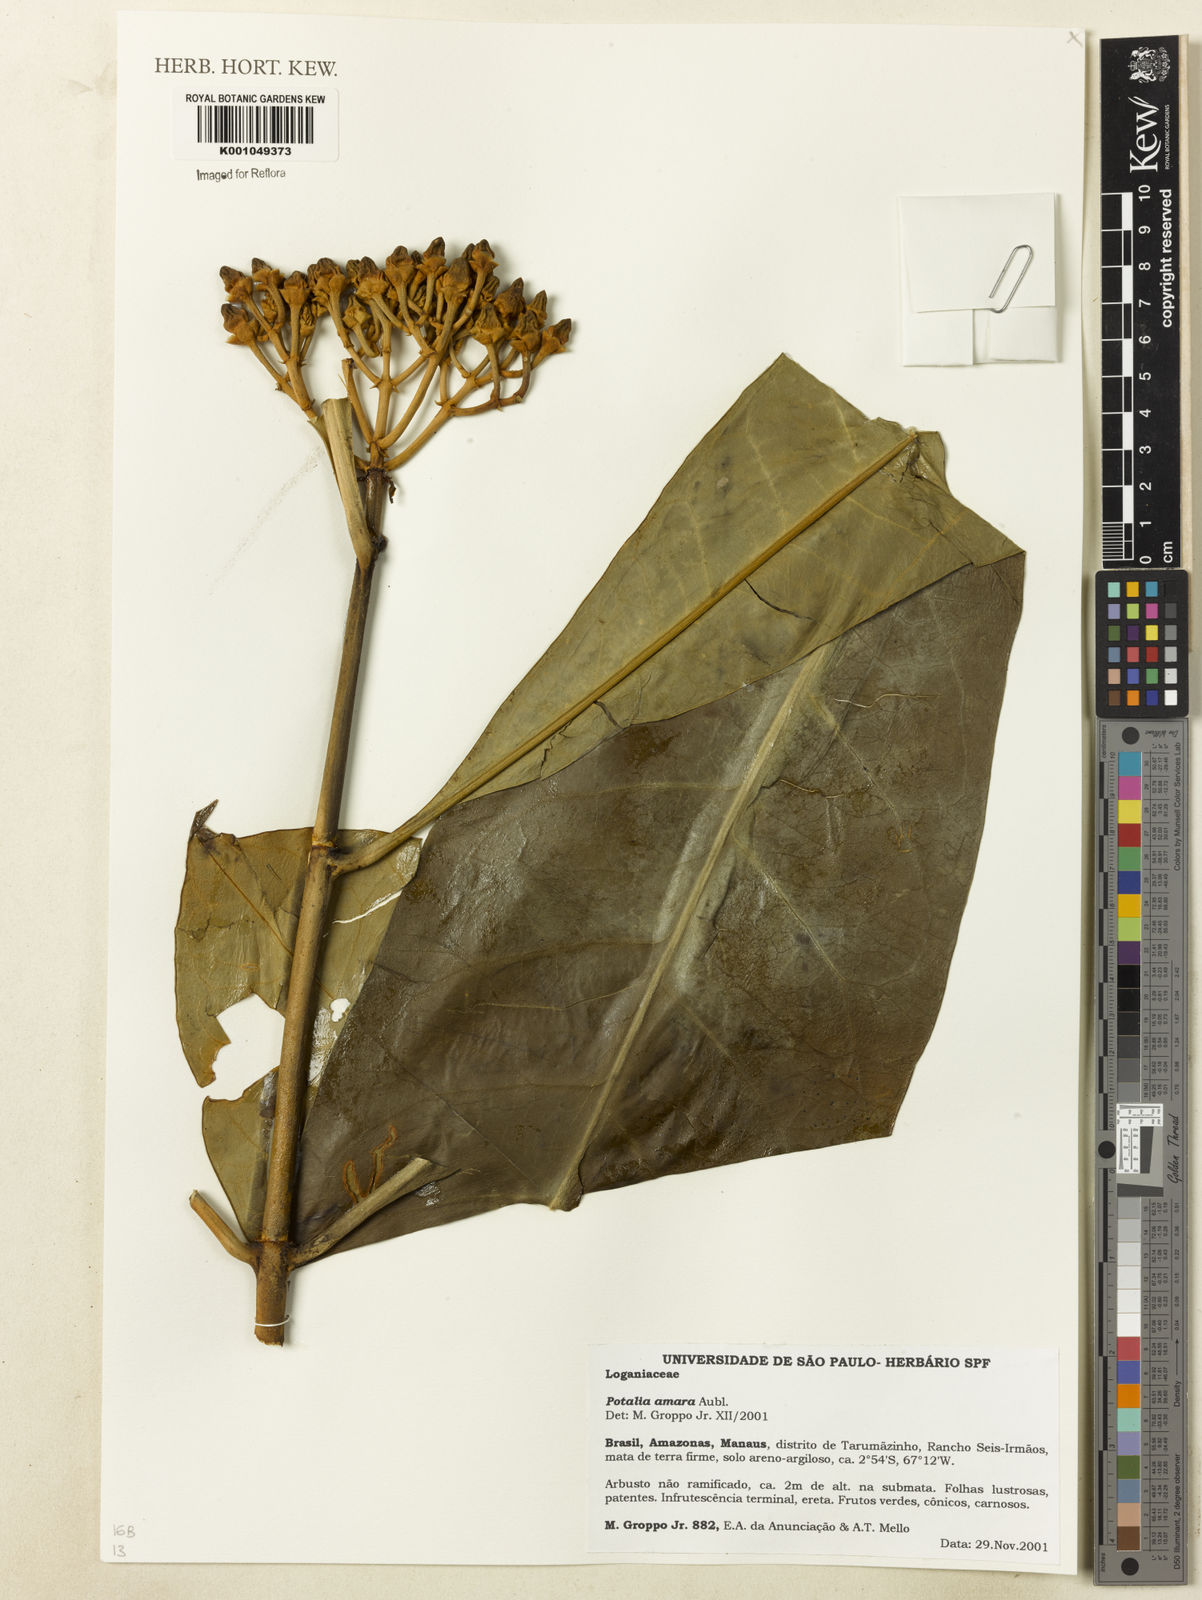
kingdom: Plantae
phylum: Tracheophyta
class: Magnoliopsida
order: Gentianales
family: Gentianaceae
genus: Potalia
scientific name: Potalia amara
